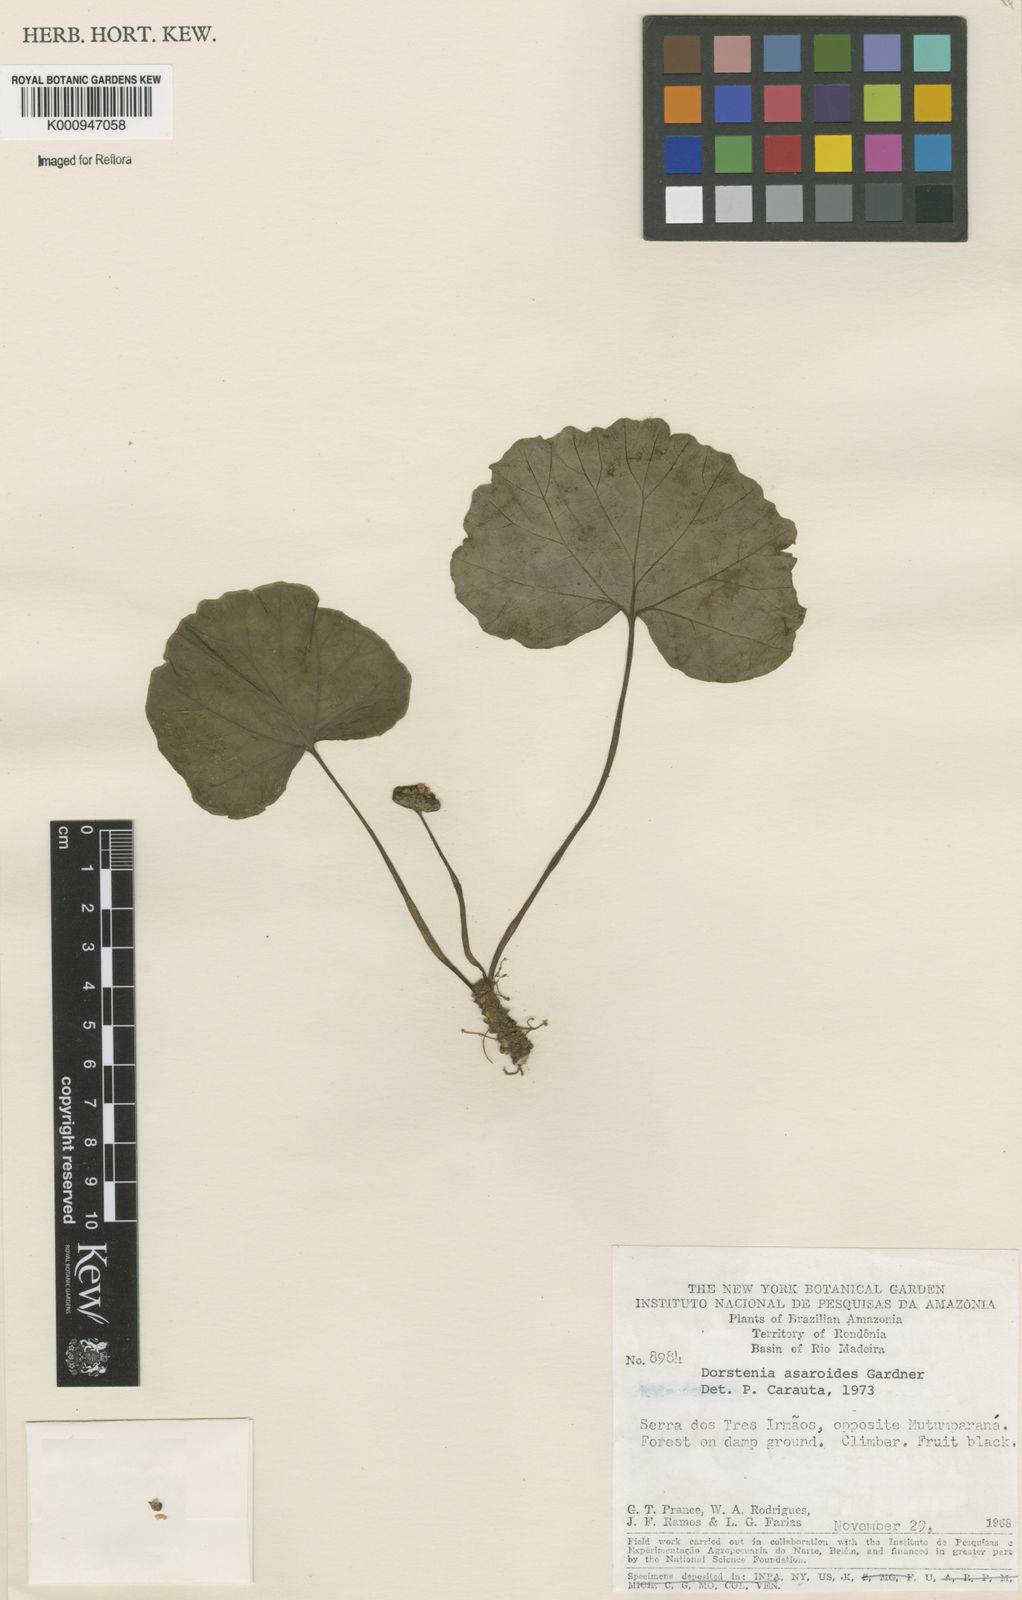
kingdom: Plantae
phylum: Tracheophyta
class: Magnoliopsida
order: Rosales
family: Moraceae
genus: Dorstenia
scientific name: Dorstenia
